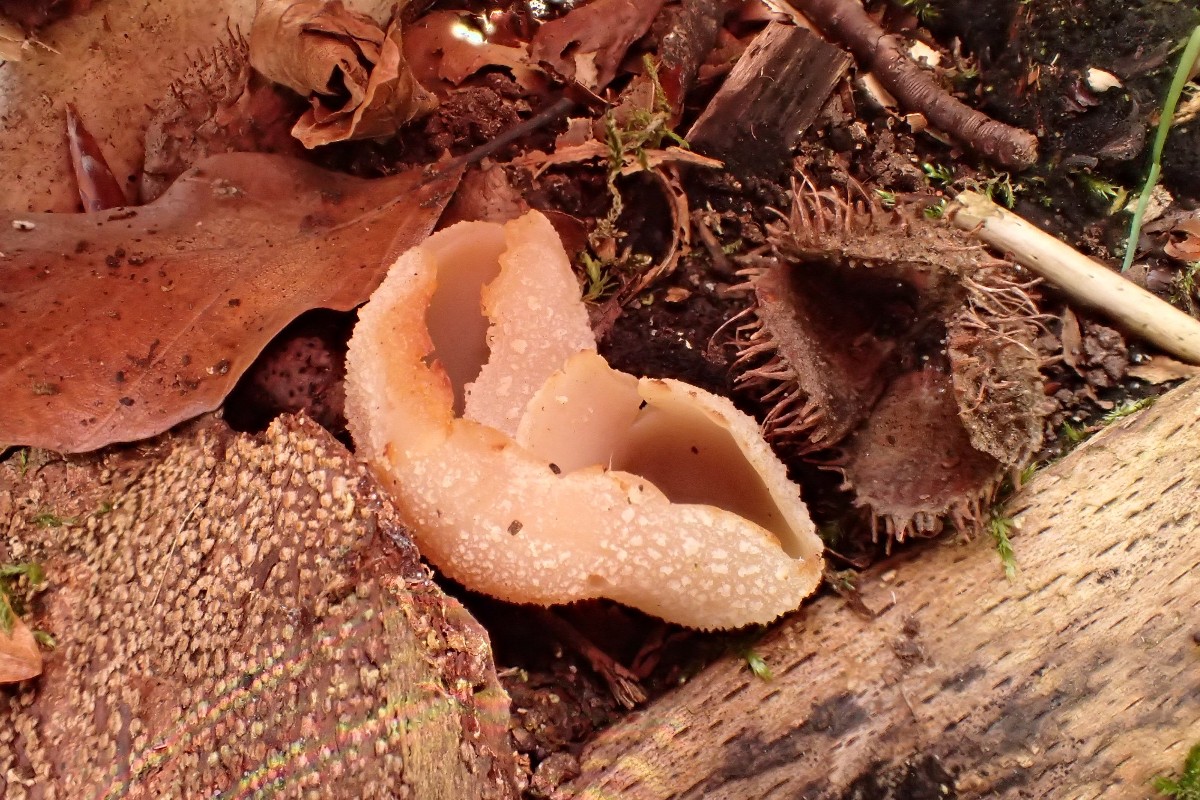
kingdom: Fungi
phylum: Ascomycota
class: Pezizomycetes
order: Pezizales
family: Pezizaceae
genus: Peziza
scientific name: Peziza
